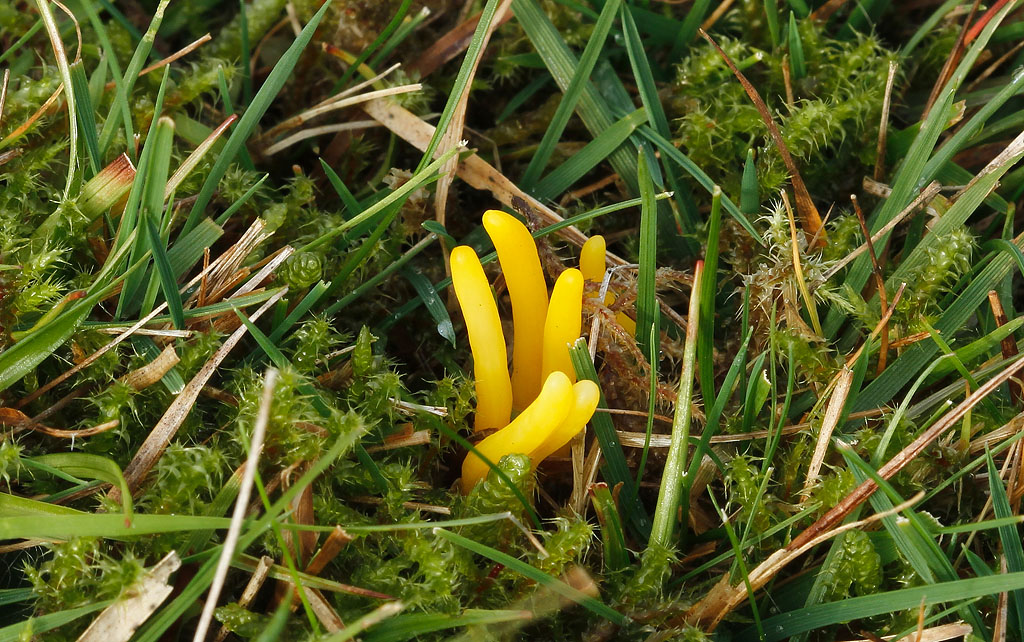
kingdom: Fungi
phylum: Basidiomycota
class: Agaricomycetes
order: Agaricales
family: Clavariaceae
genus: Clavulinopsis
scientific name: Clavulinopsis helvola
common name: orangegul køllesvamp
